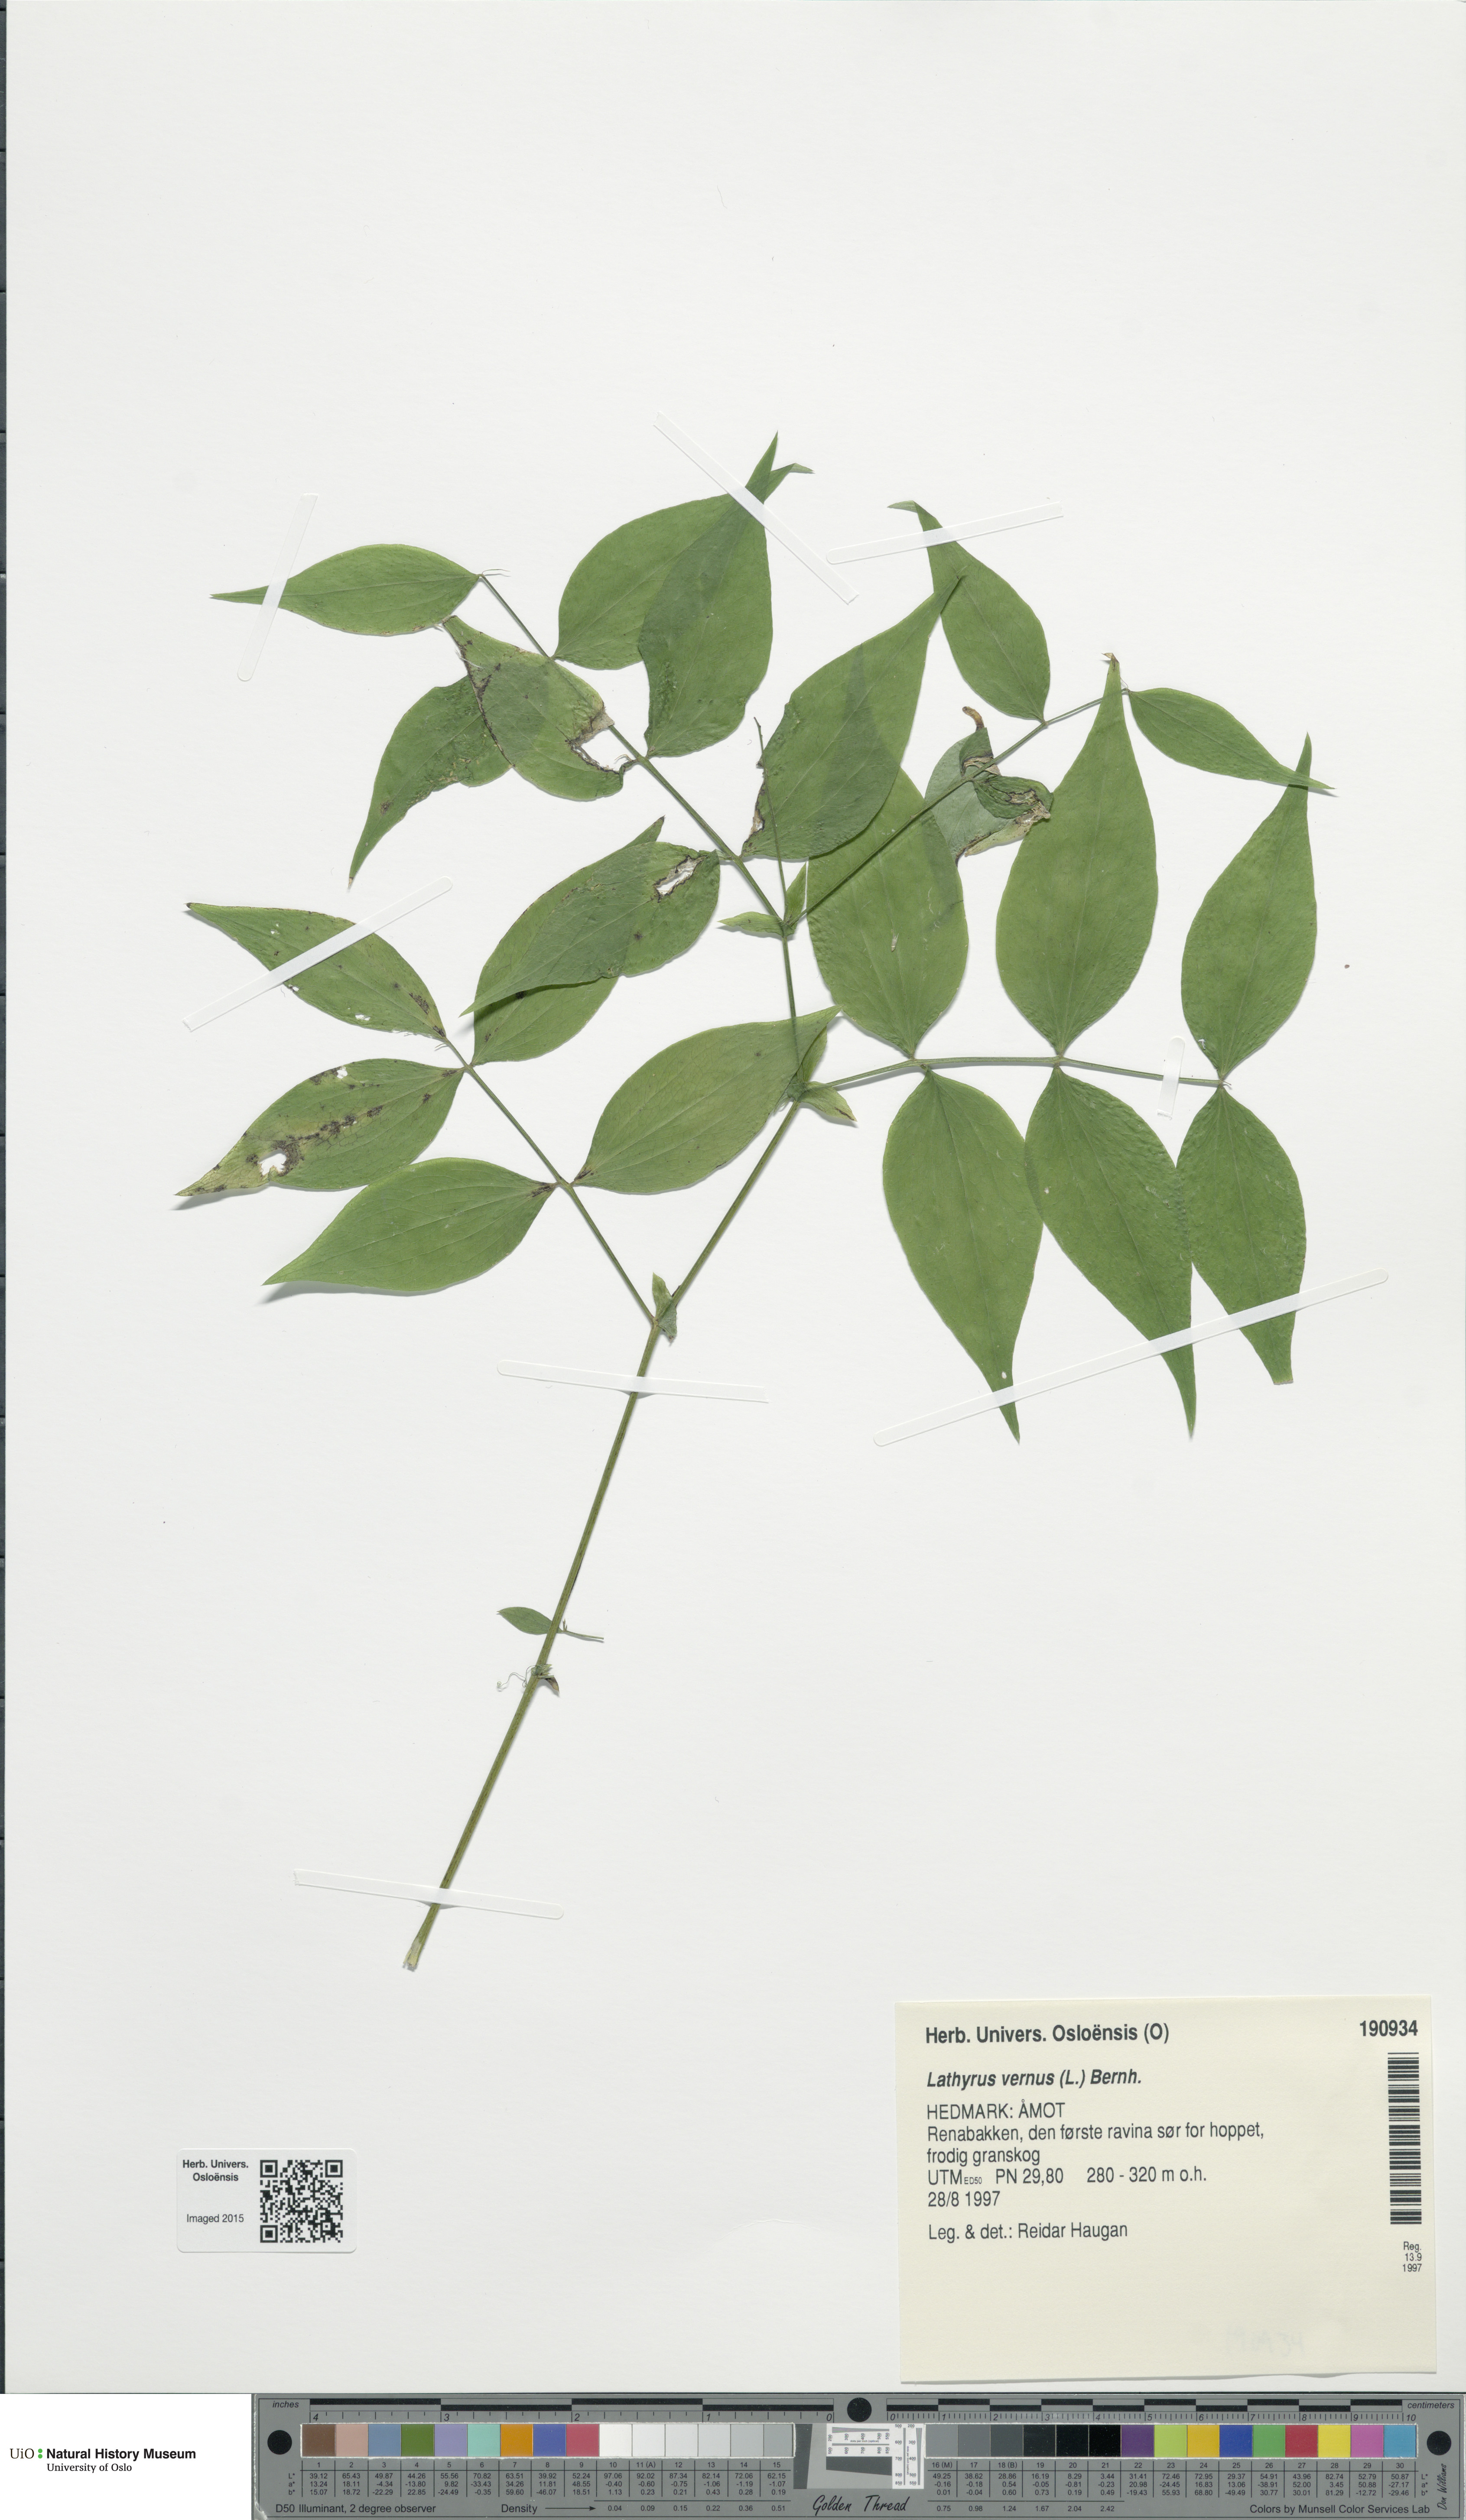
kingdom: Plantae
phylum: Tracheophyta
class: Magnoliopsida
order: Fabales
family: Fabaceae
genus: Lathyrus
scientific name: Lathyrus vernus
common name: Spring pea
